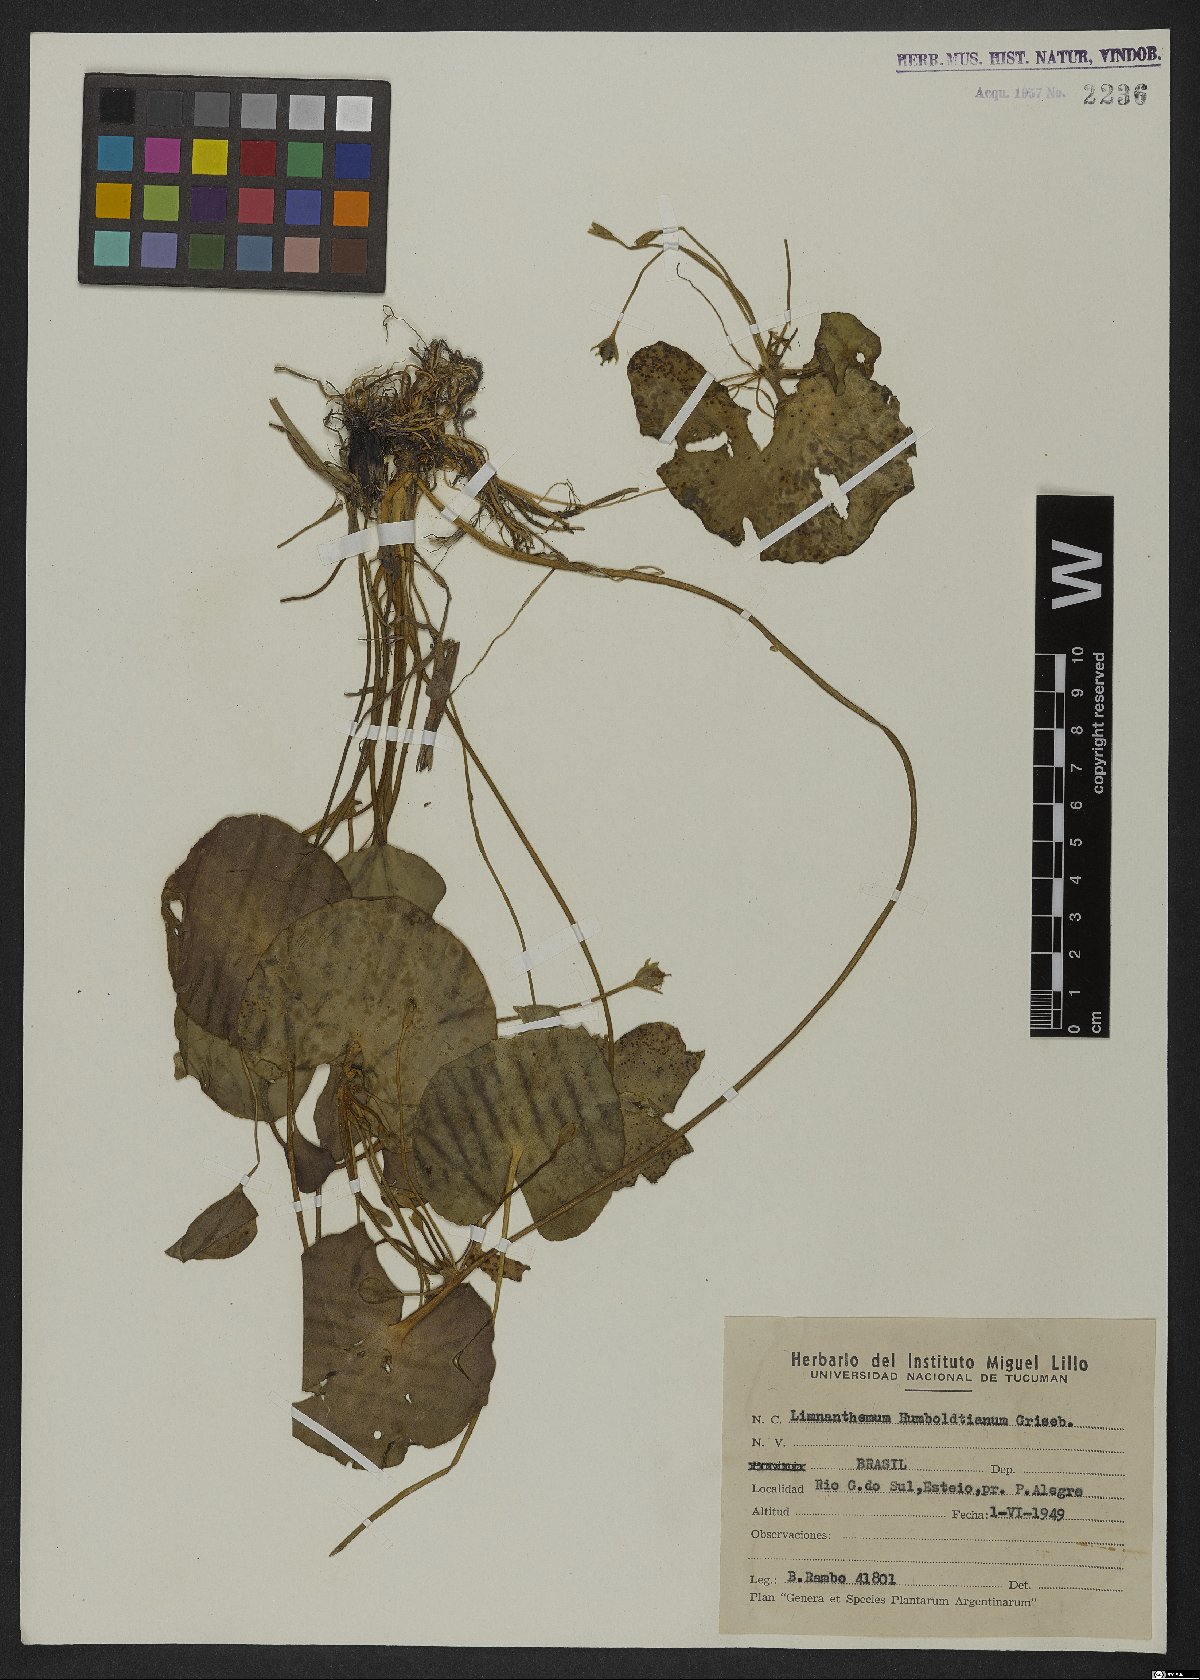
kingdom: Plantae
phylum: Tracheophyta
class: Magnoliopsida
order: Asterales
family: Menyanthaceae
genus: Nymphoides
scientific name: Nymphoides humboldtiana
